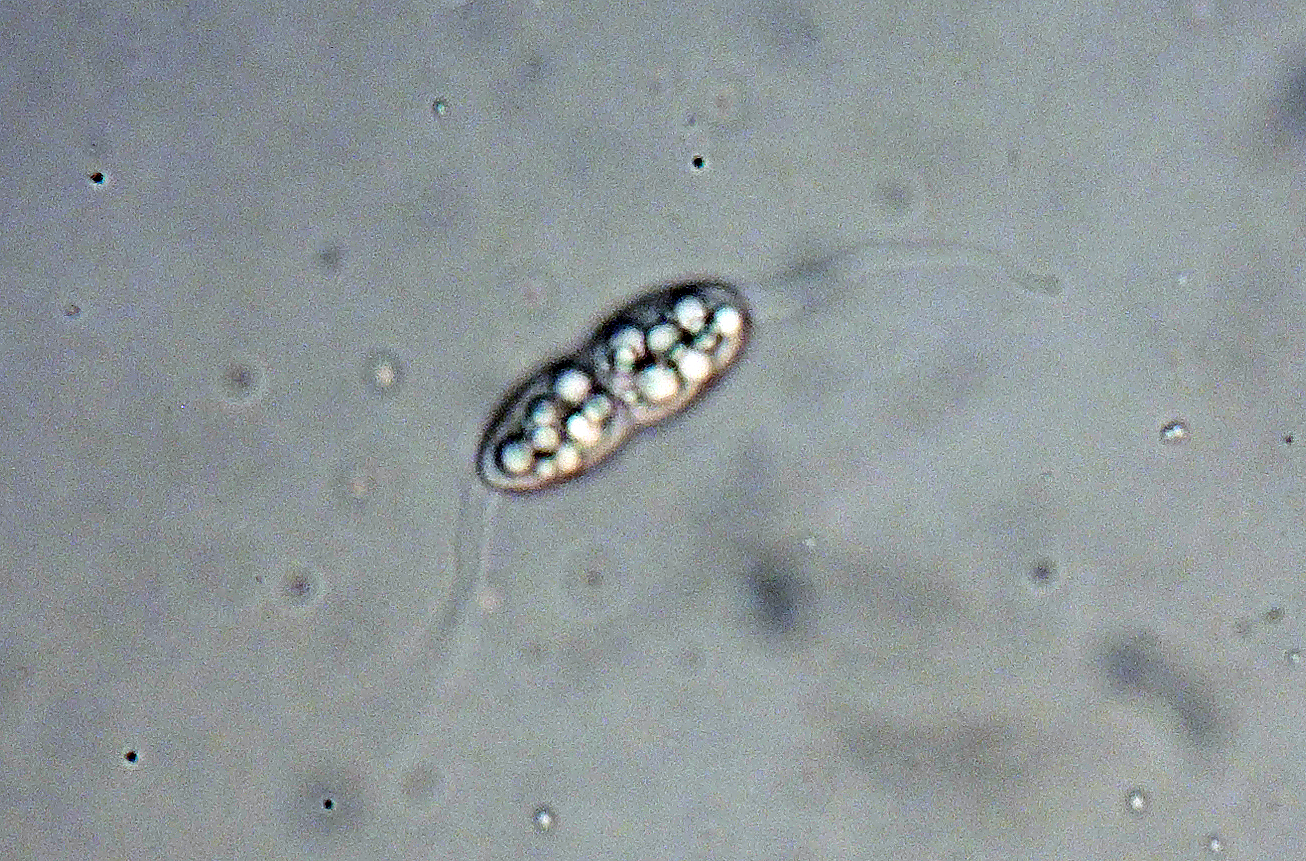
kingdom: Fungi
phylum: Ascomycota
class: Sordariomycetes
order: Diaporthales
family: Melanconidaceae
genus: Pseudovalsella
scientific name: Pseudovalsella thelebola
